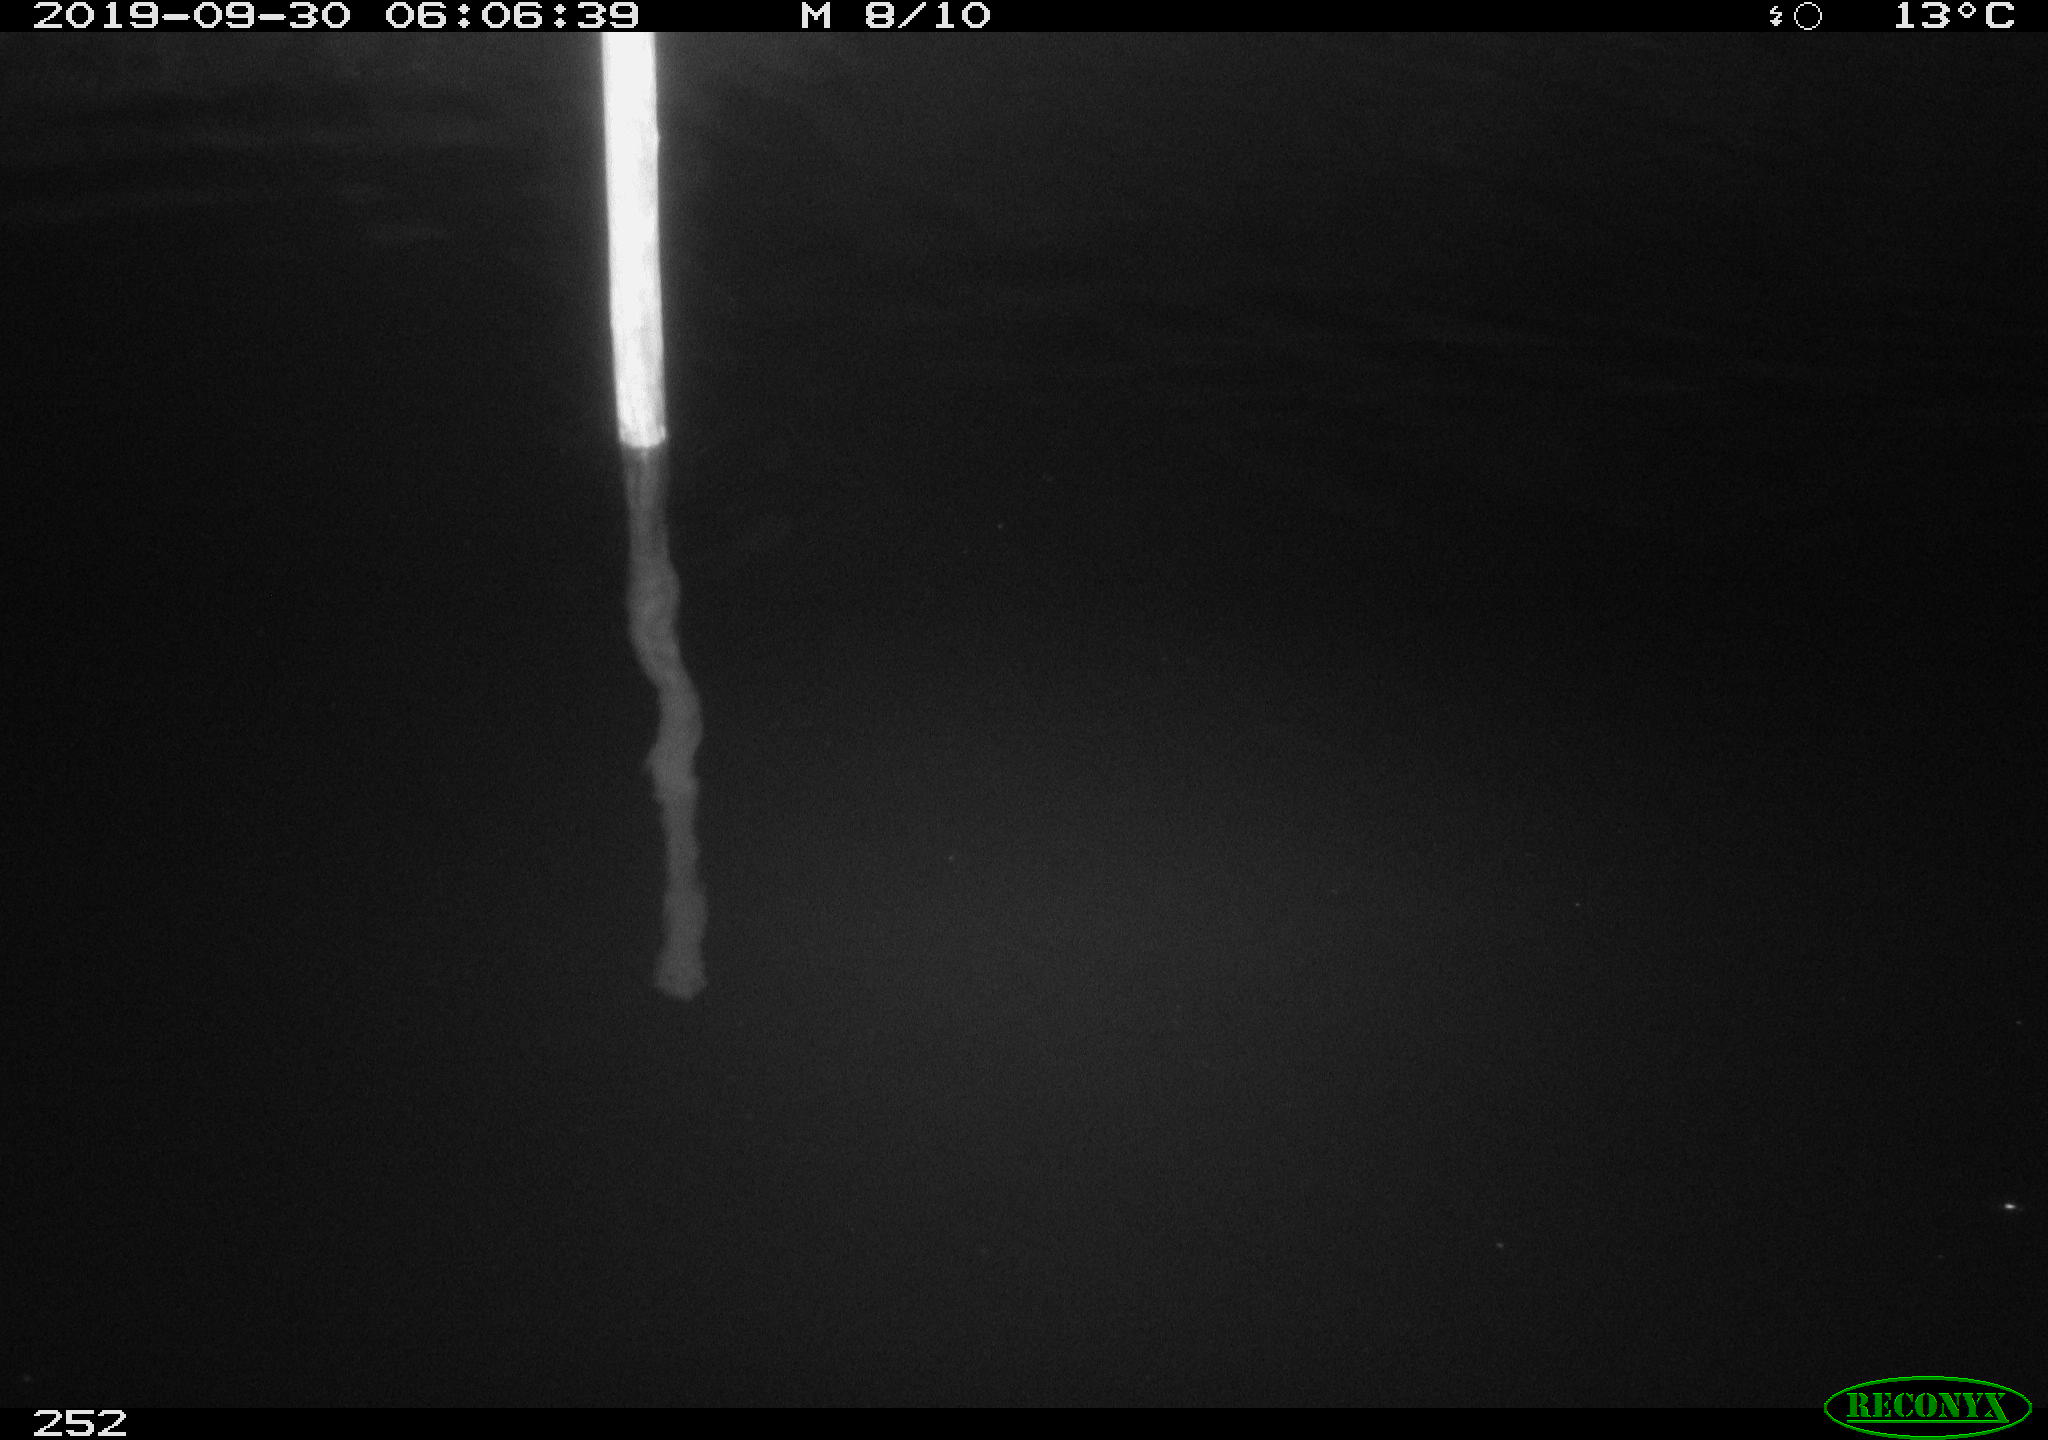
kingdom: Animalia
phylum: Chordata
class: Aves
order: Anseriformes
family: Anatidae
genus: Anas
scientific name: Anas platyrhynchos
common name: Mallard
